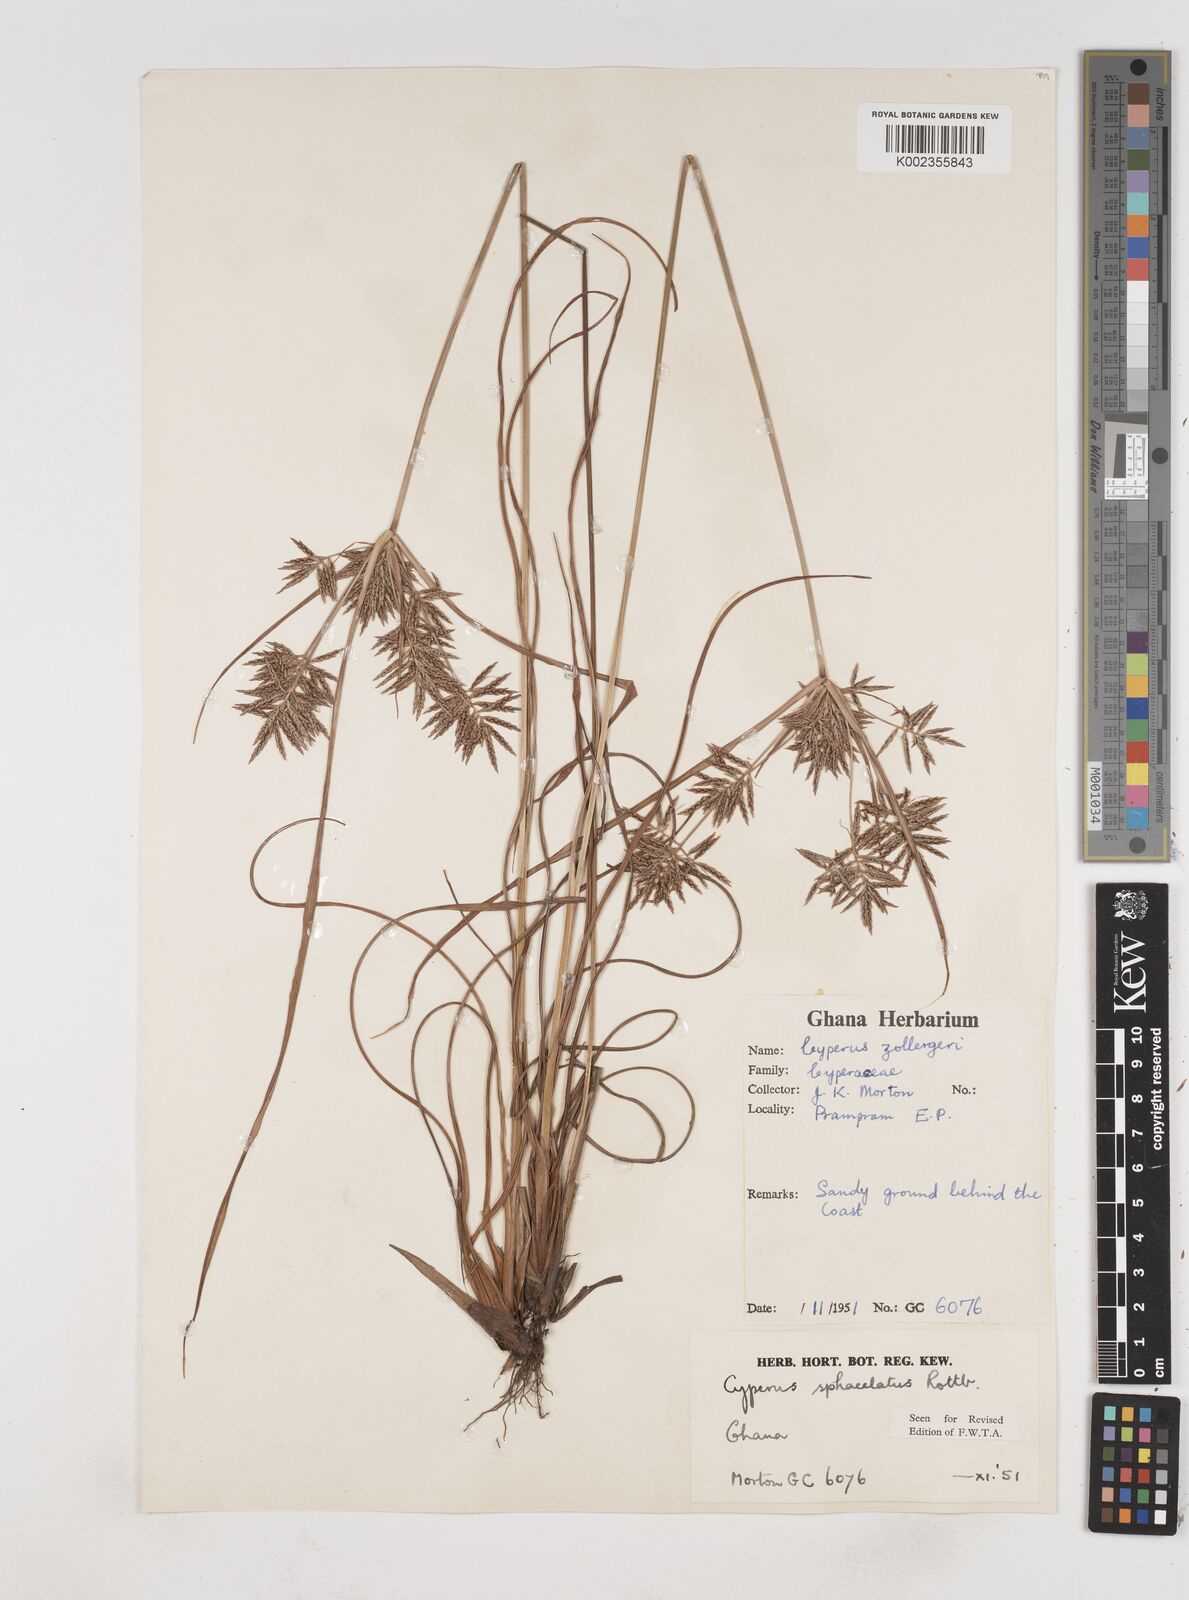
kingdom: Plantae
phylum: Tracheophyta
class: Liliopsida
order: Poales
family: Cyperaceae
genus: Cyperus
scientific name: Cyperus sphacelatus
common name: Roadside flatsedge
